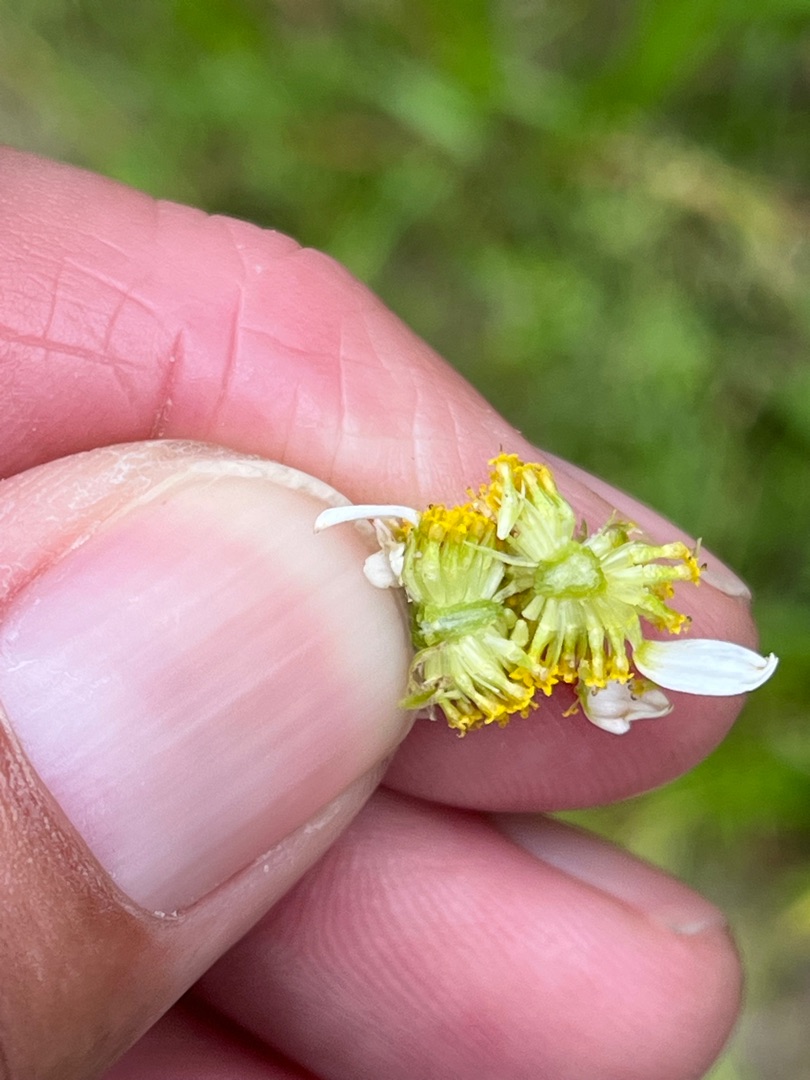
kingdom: Plantae
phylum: Tracheophyta
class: Magnoliopsida
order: Asterales
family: Asteraceae
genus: Anthemis
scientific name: Anthemis arvensis
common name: Ager-gåseurt
